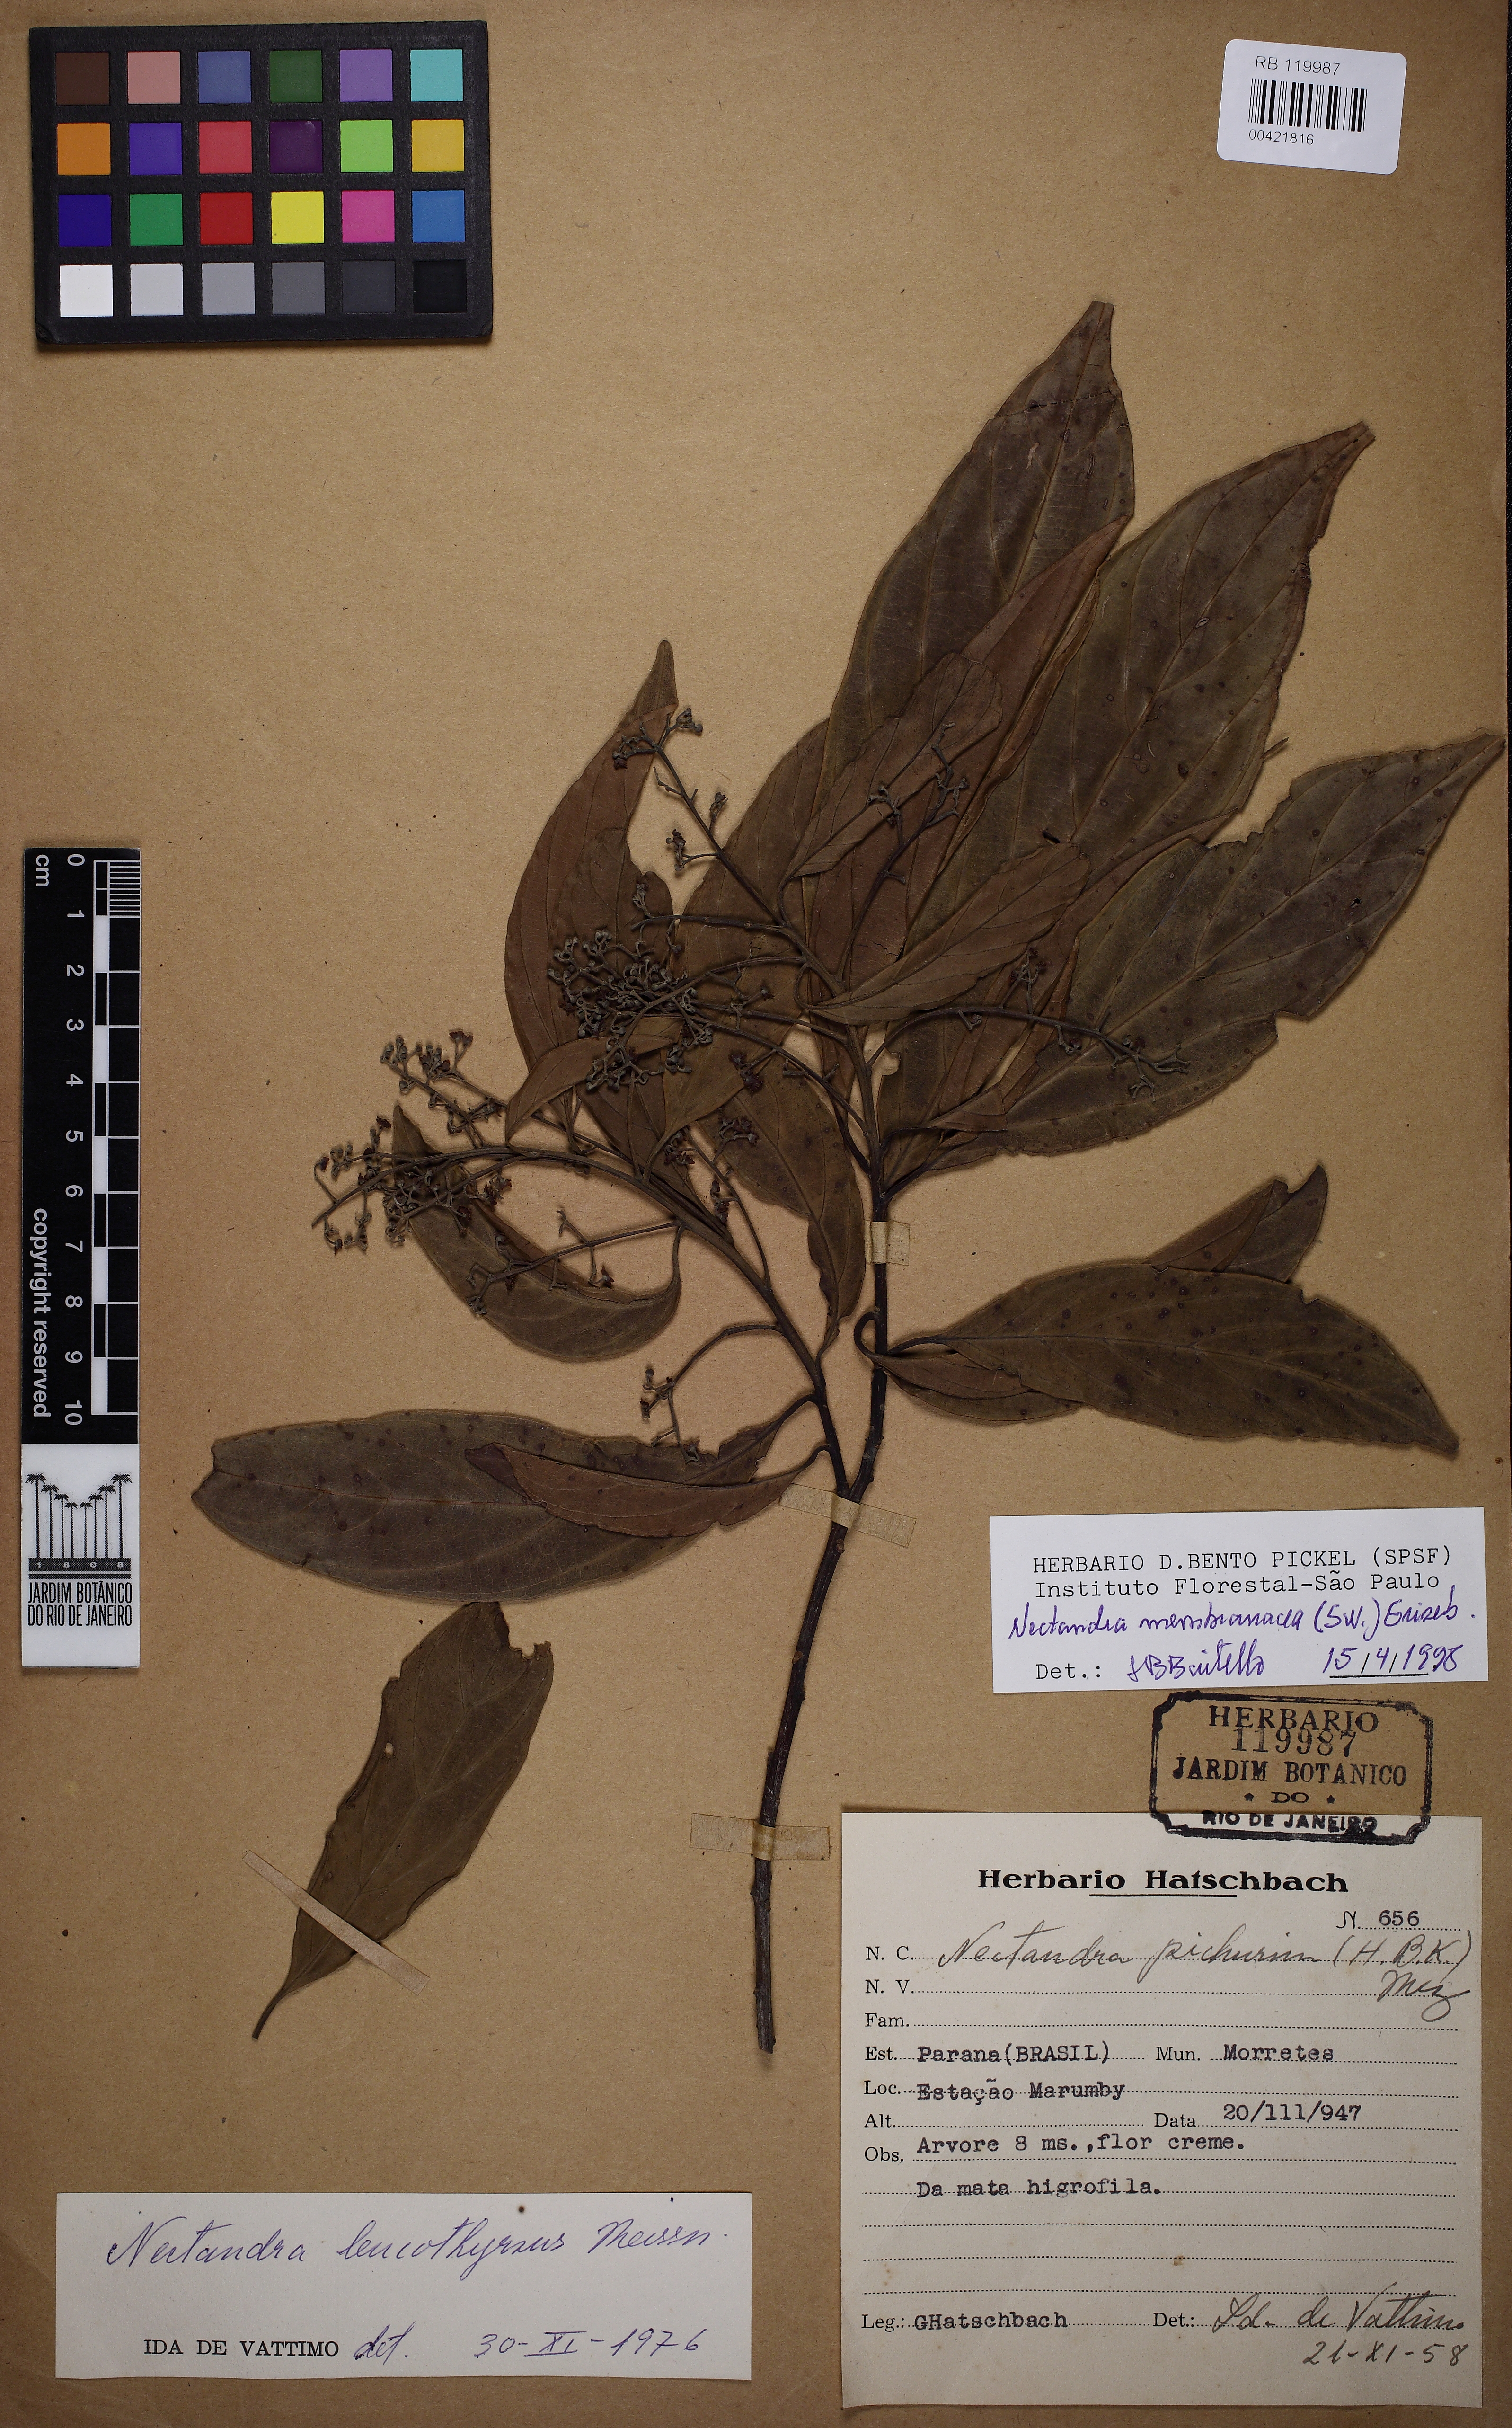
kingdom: Plantae
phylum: Tracheophyta
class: Magnoliopsida
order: Laurales
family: Lauraceae
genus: Nectandra
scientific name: Nectandra membranacea
